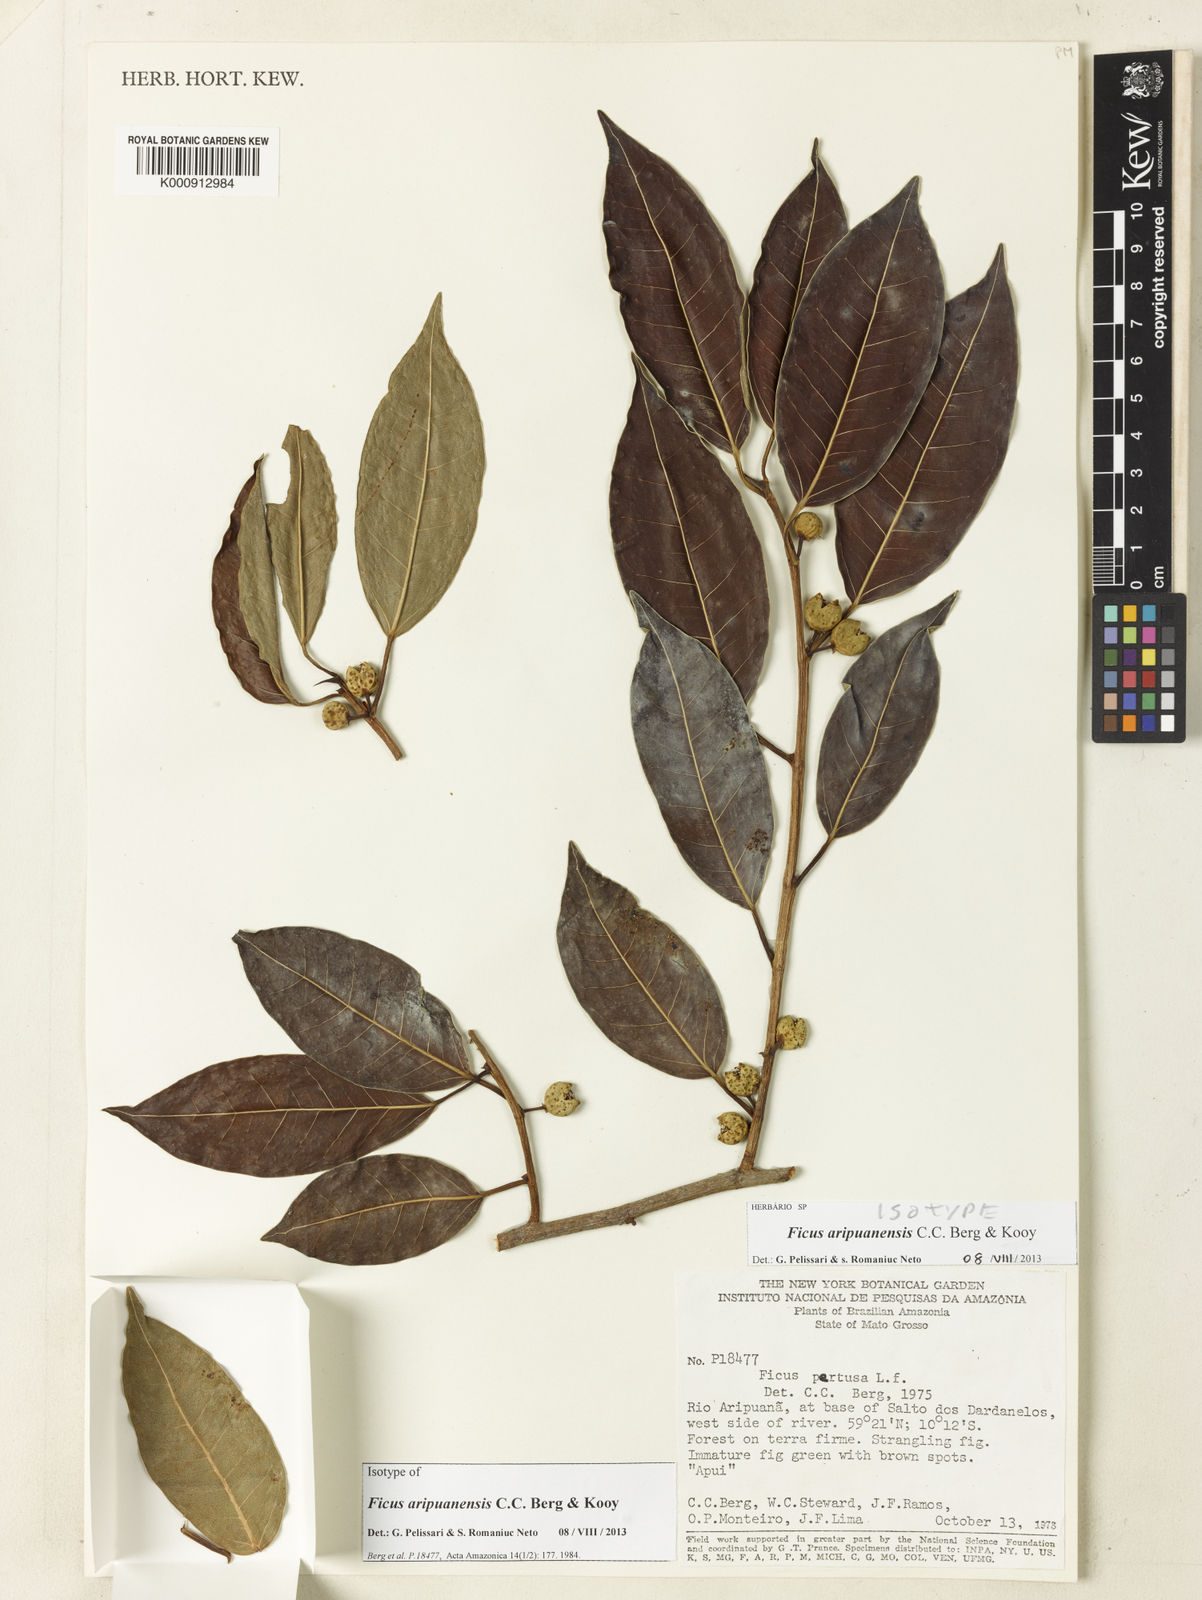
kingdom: Plantae
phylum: Tracheophyta
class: Magnoliopsida
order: Rosales
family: Moraceae
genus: Ficus
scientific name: Ficus aripuanensis
